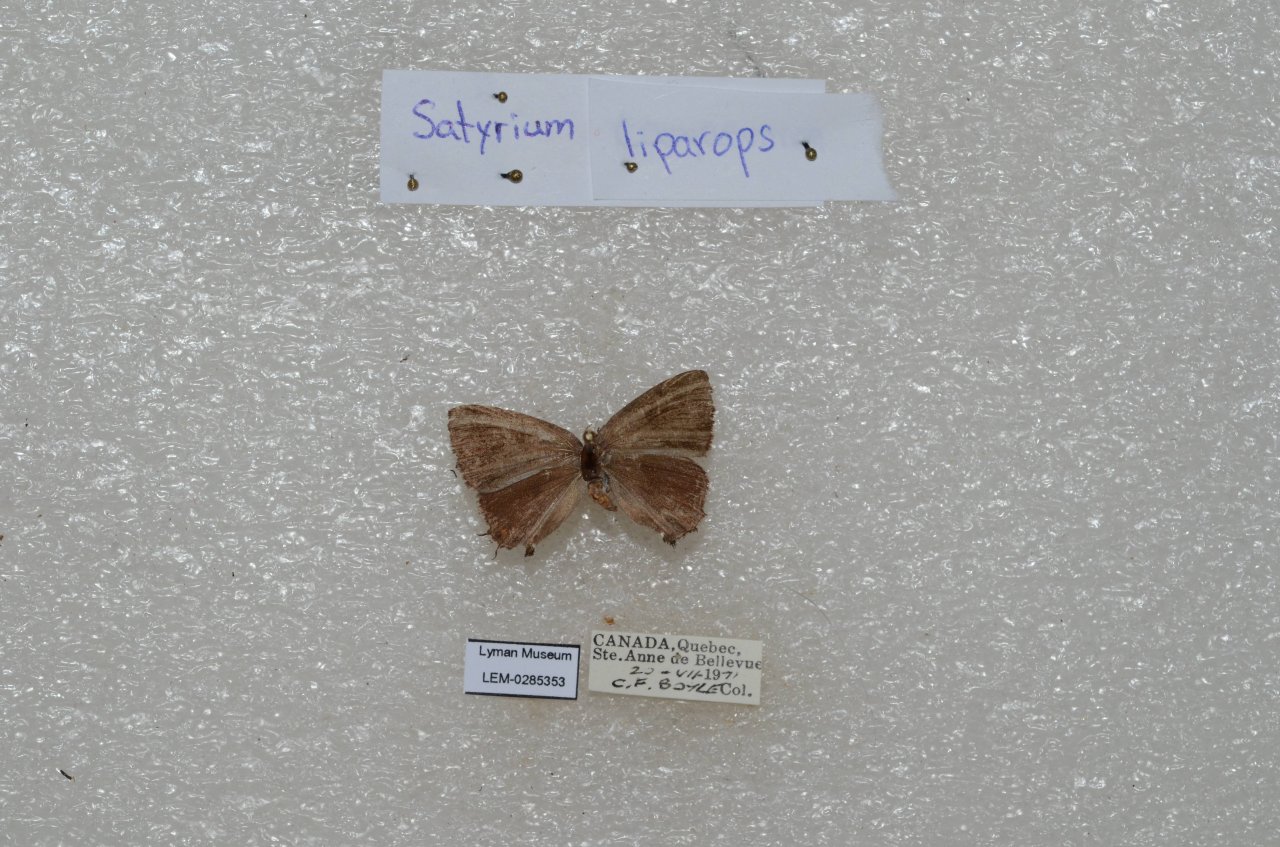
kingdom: Animalia
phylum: Arthropoda
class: Insecta
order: Lepidoptera
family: Lycaenidae
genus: Satyrium
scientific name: Satyrium liparops
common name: Striped Hairstreak
